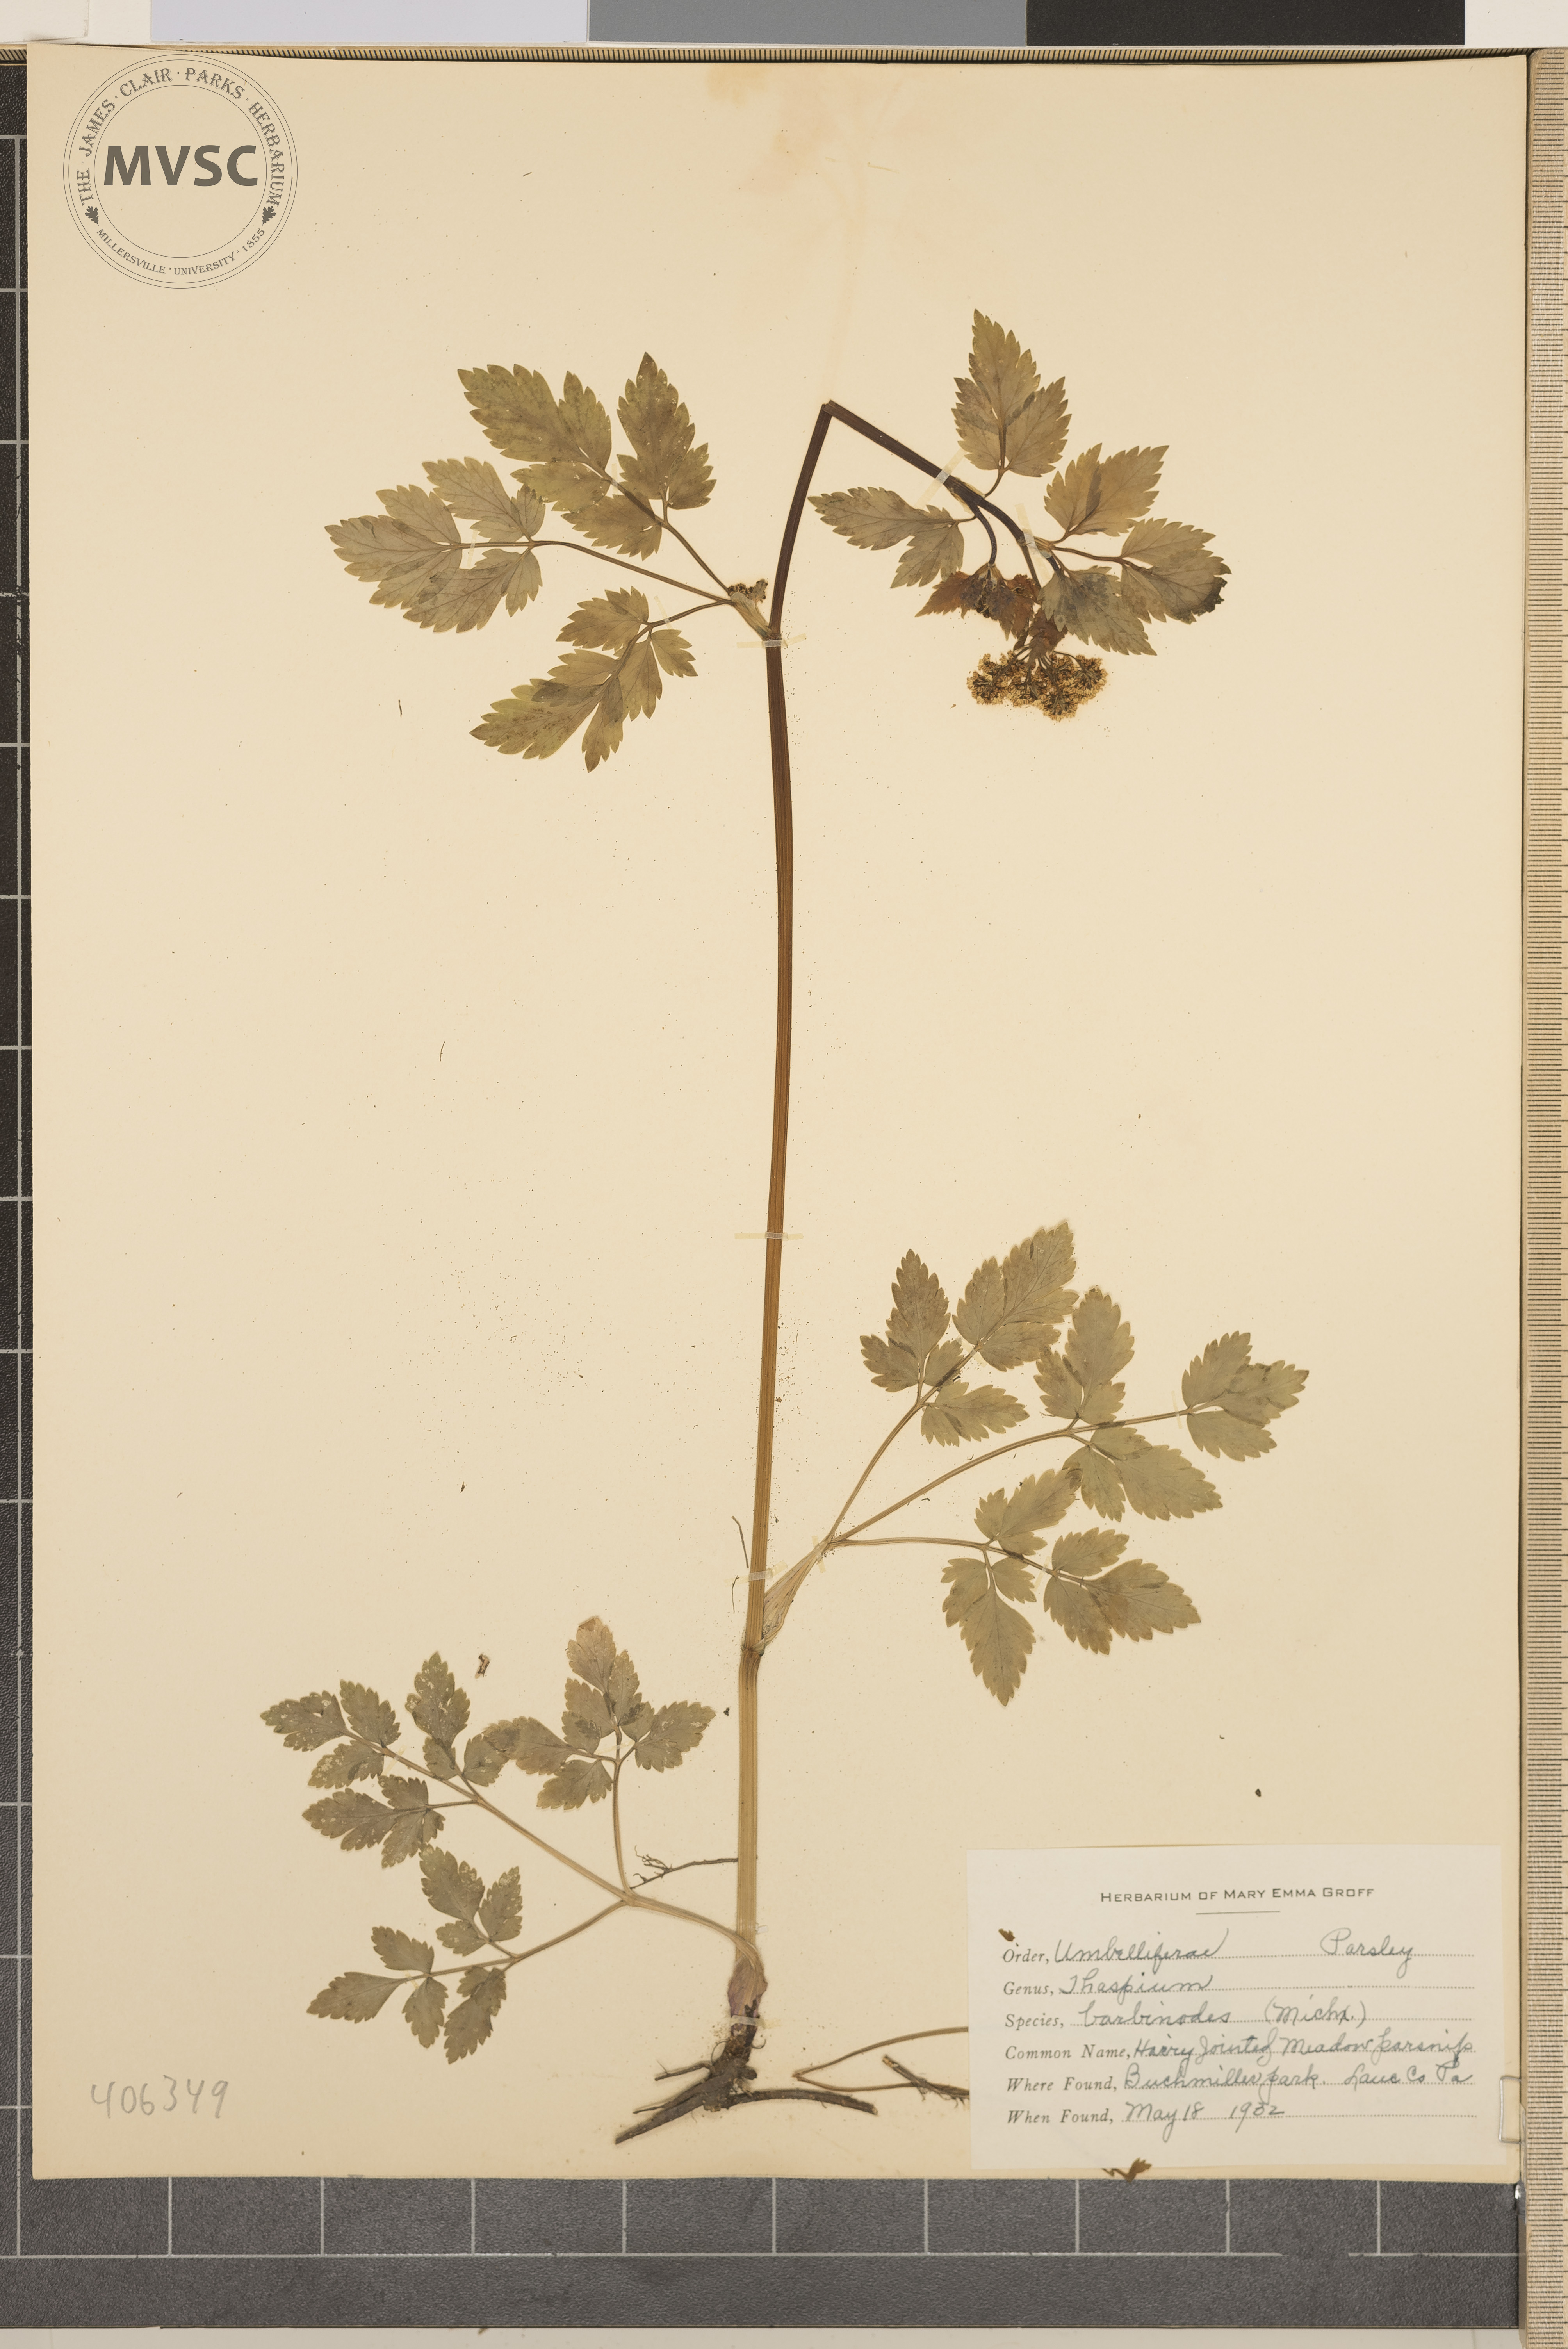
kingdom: Plantae
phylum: Tracheophyta
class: Magnoliopsida
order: Apiales
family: Apiaceae
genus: Thaspium
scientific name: Thaspium barbinode
